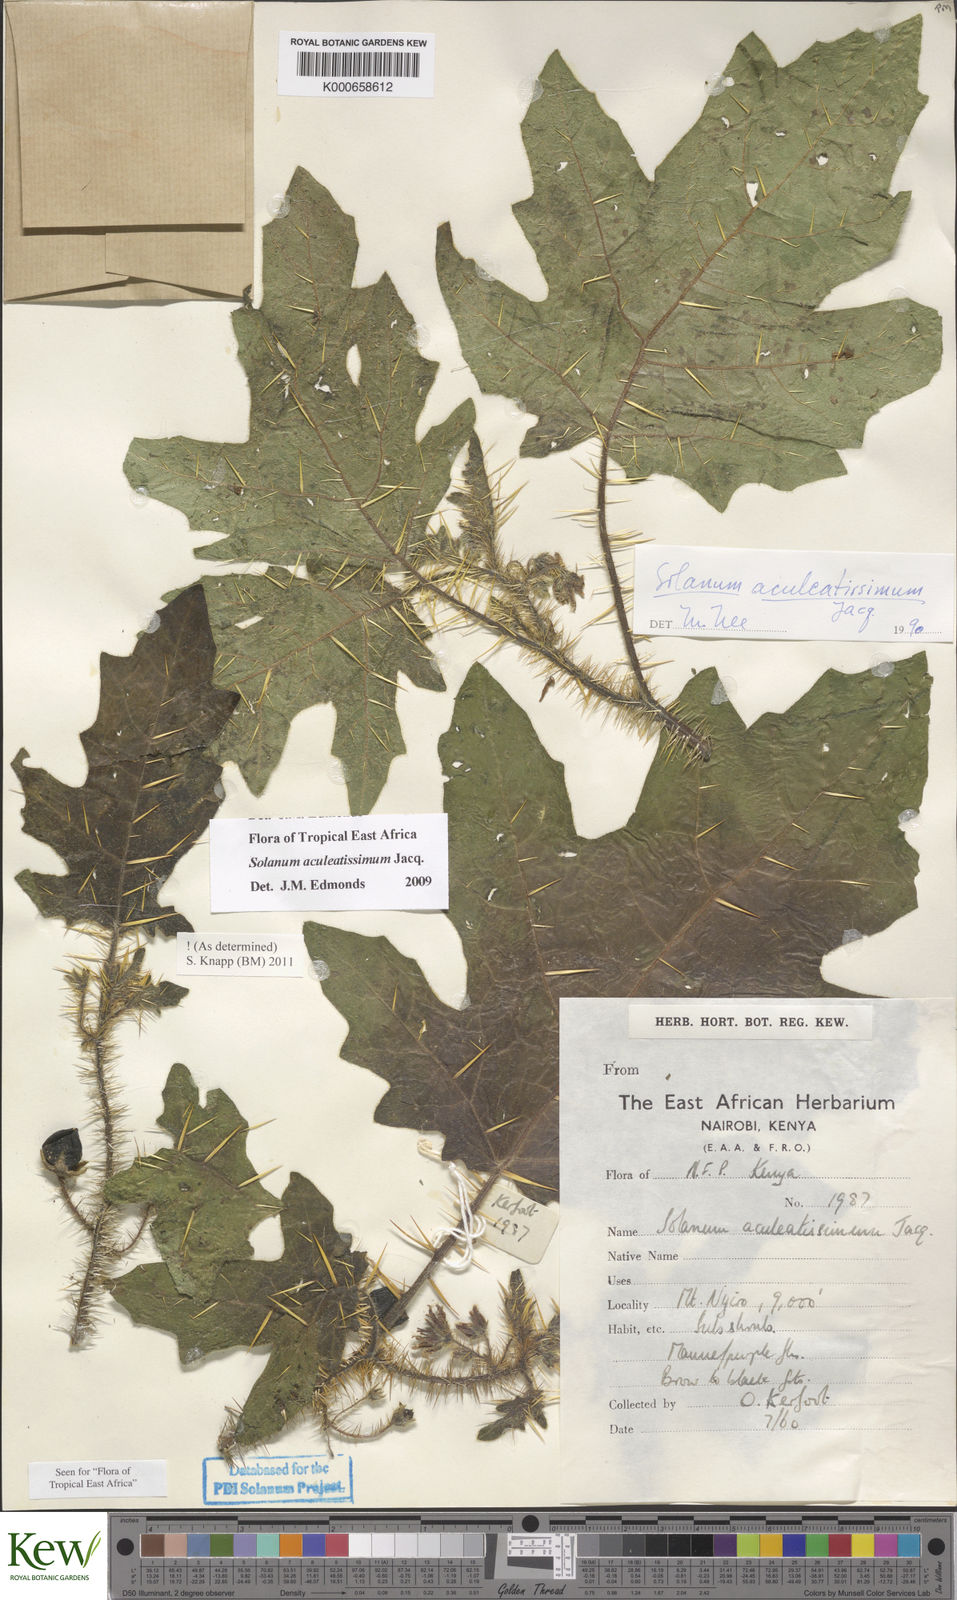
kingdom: Plantae
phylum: Tracheophyta
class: Magnoliopsida
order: Solanales
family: Solanaceae
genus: Solanum
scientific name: Solanum aculeatissimum
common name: Dutch eggplant
